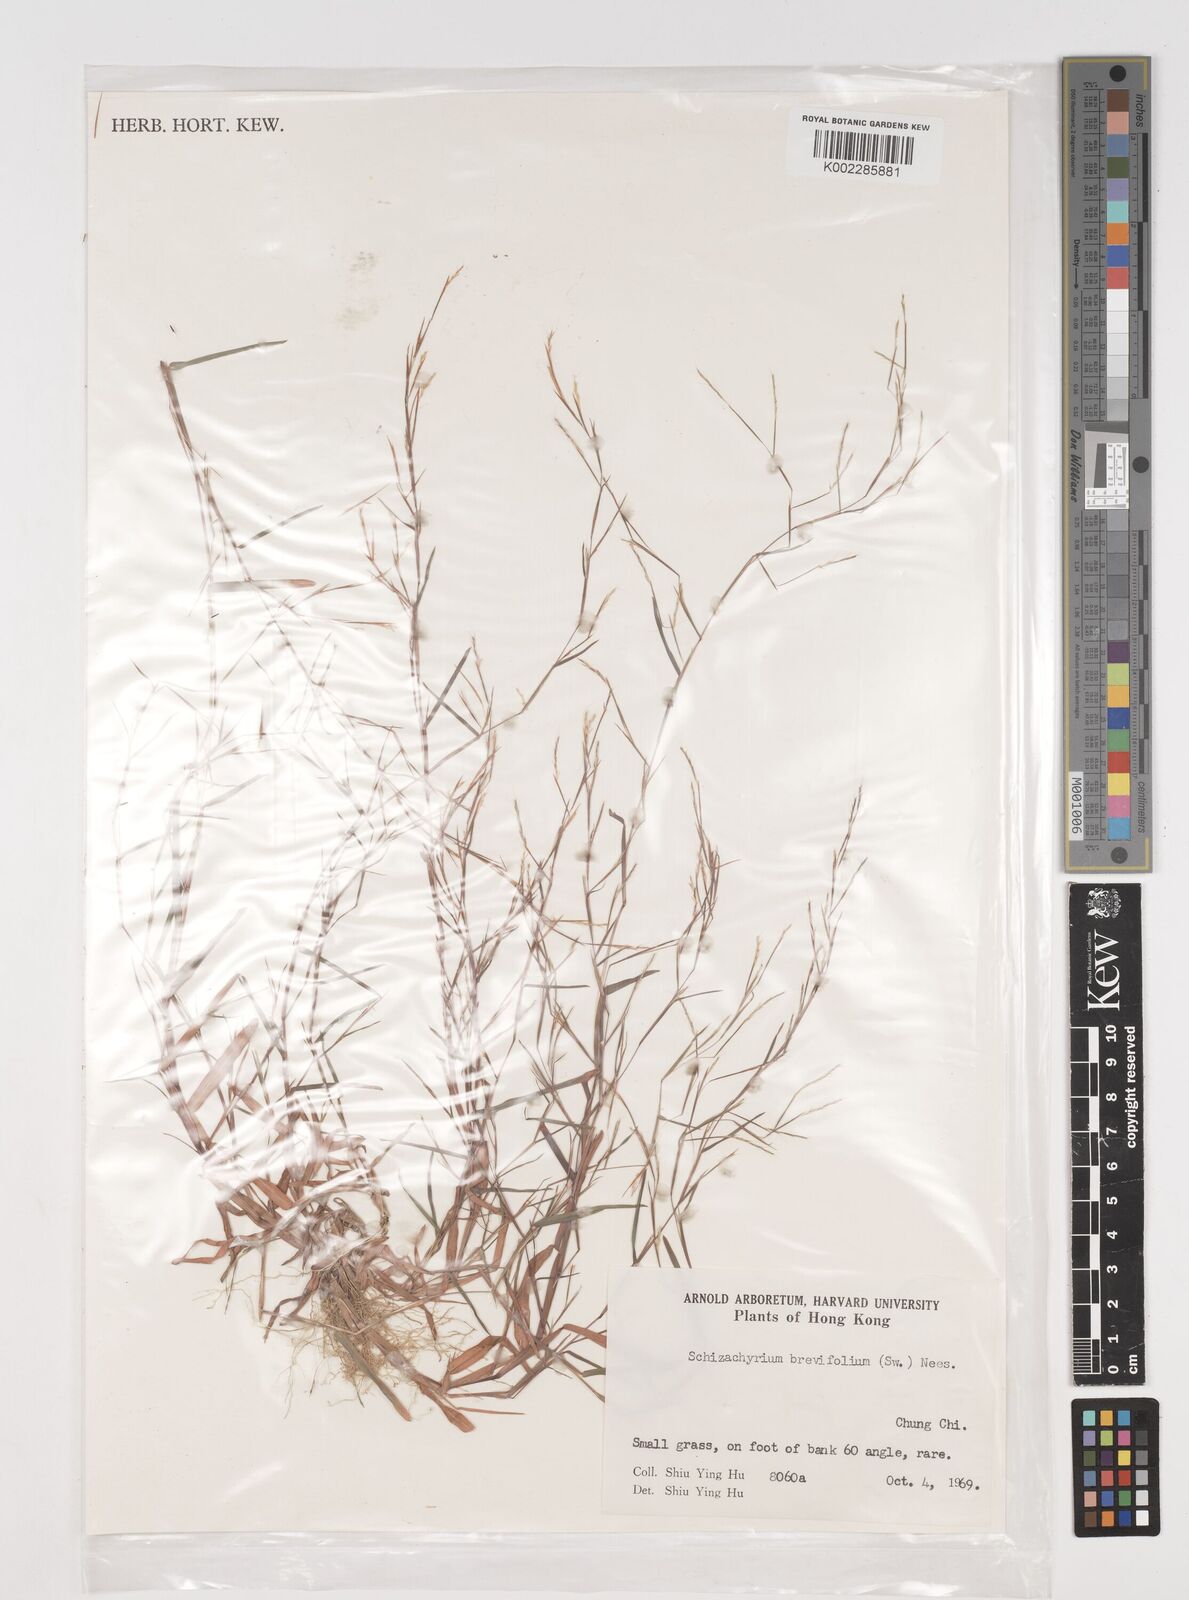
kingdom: Plantae
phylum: Tracheophyta
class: Liliopsida
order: Poales
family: Poaceae
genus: Schizachyrium
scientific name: Schizachyrium brevifolium
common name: Serillo dulce
